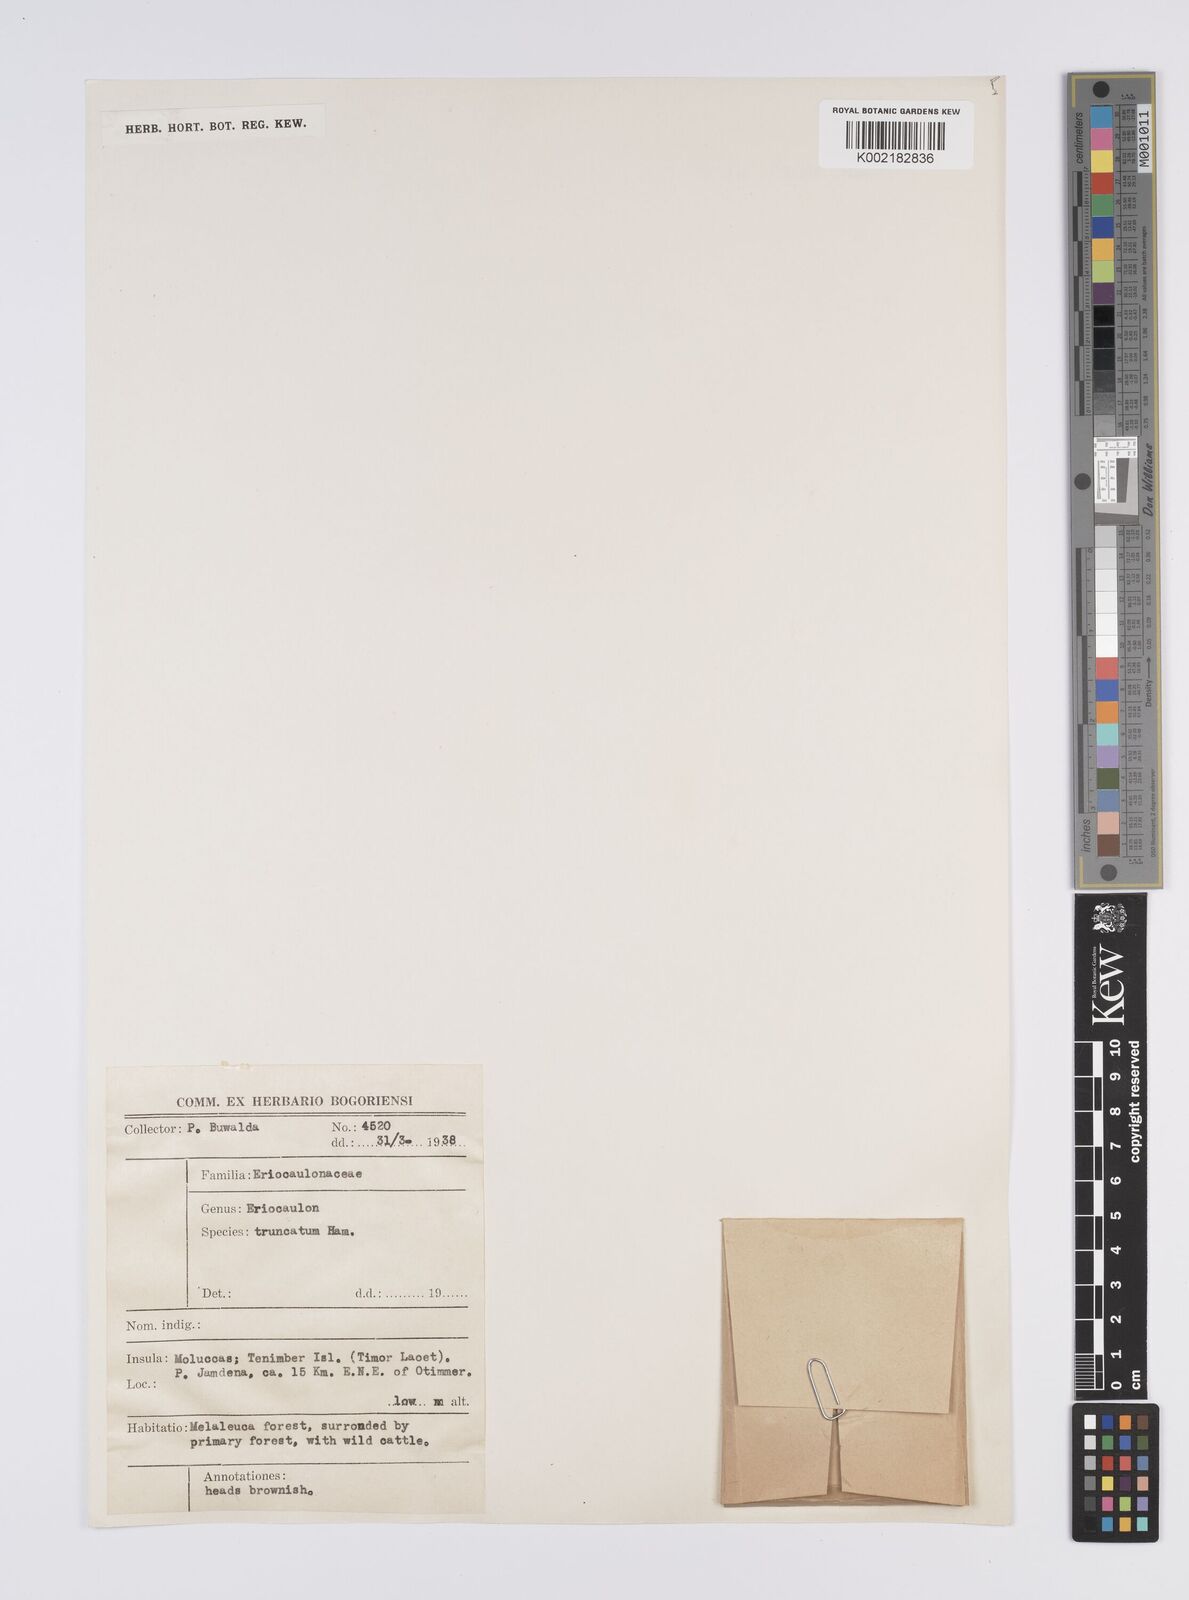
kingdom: Plantae
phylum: Tracheophyta
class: Liliopsida
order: Poales
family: Eriocaulaceae
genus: Eriocaulon
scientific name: Eriocaulon truncatum
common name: Short pipe-wort
